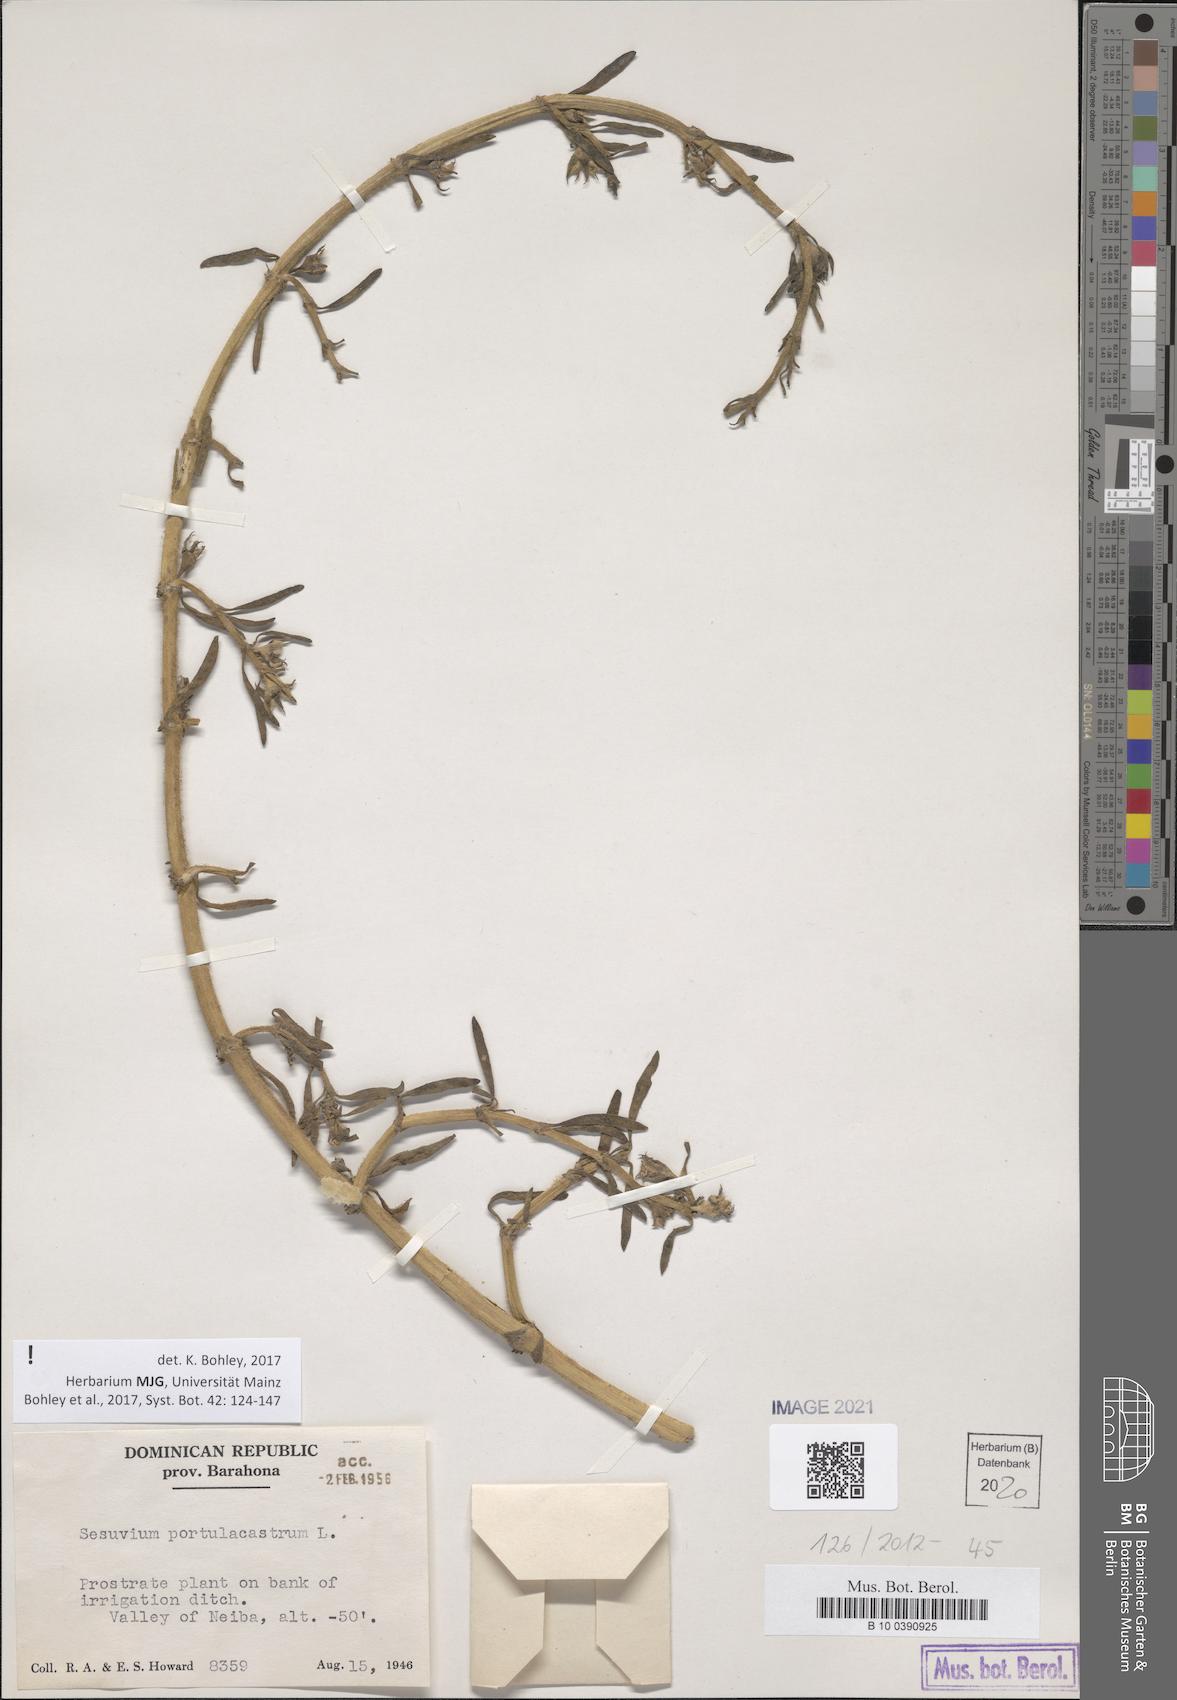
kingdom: Plantae
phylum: Tracheophyta
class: Magnoliopsida
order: Caryophyllales
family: Aizoaceae
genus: Sesuvium
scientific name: Sesuvium portulacastrum
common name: Sea-purslane
